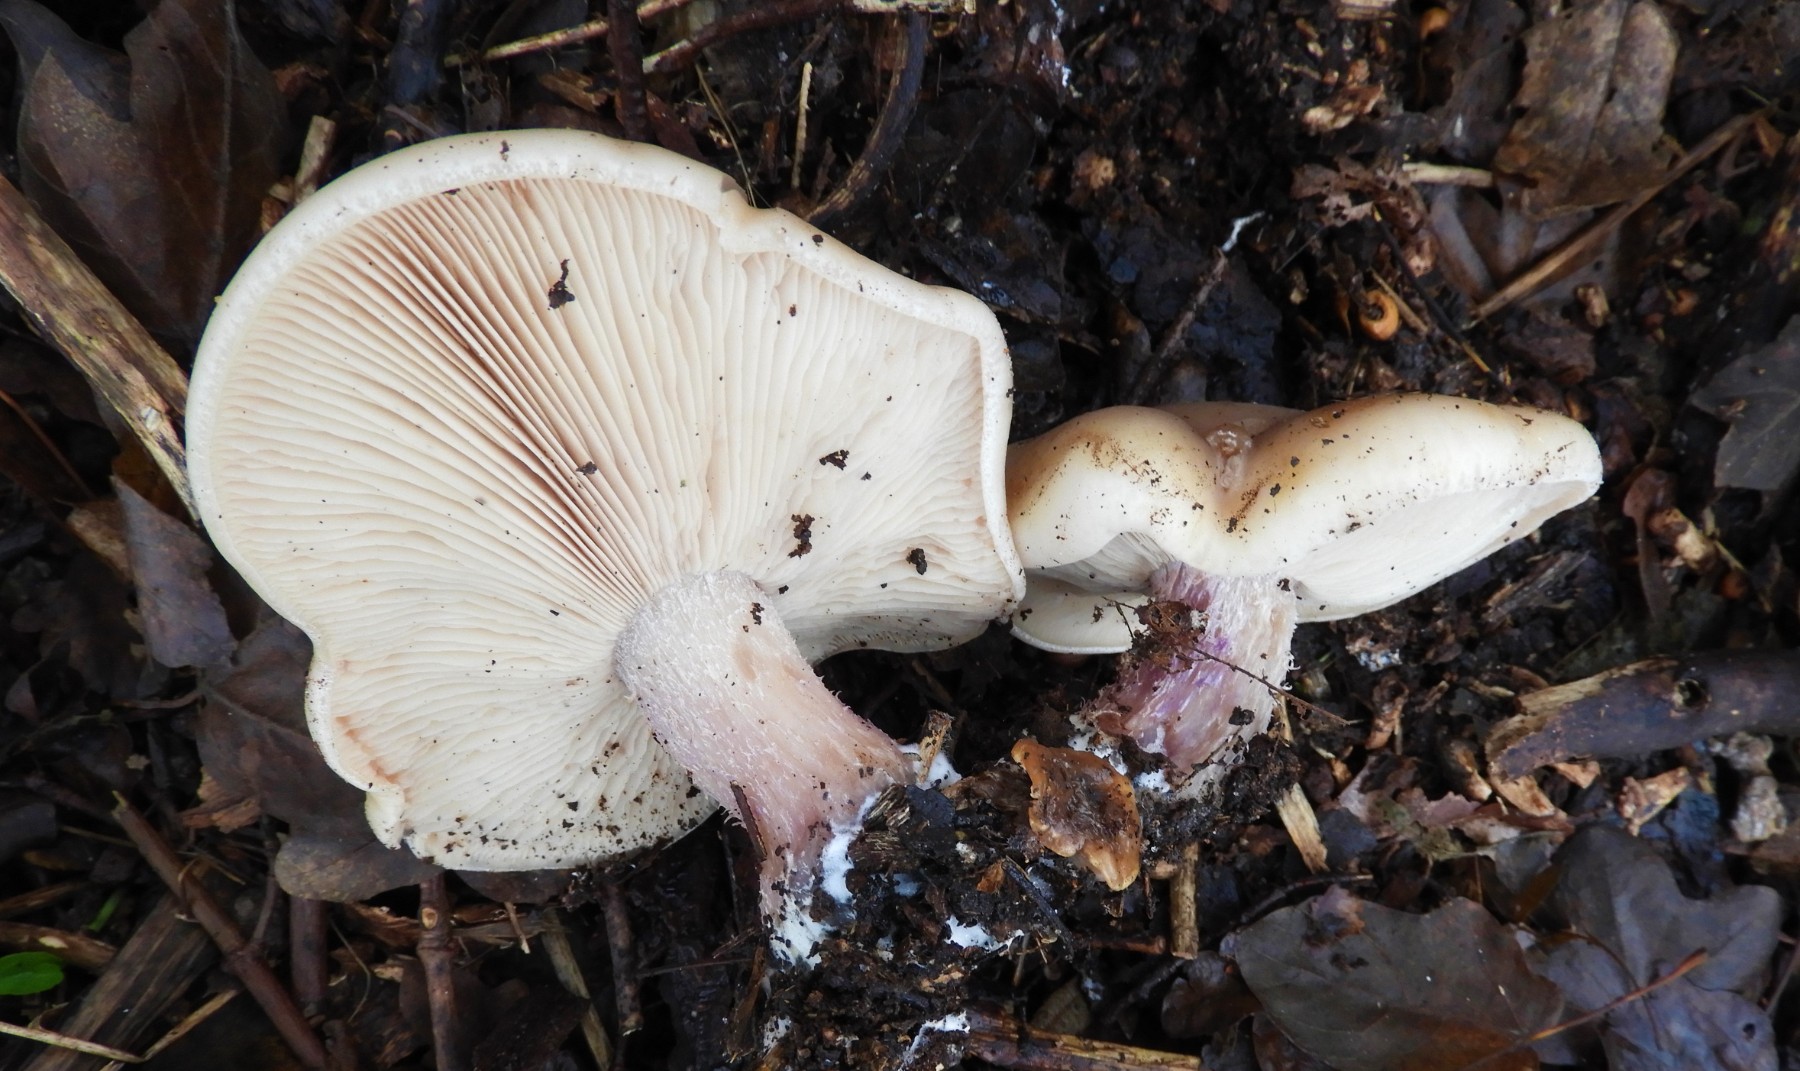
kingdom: Fungi
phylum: Basidiomycota
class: Agaricomycetes
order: Agaricales
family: Tricholomataceae
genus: Lepista
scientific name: Lepista personata
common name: bleg hekseringshat
